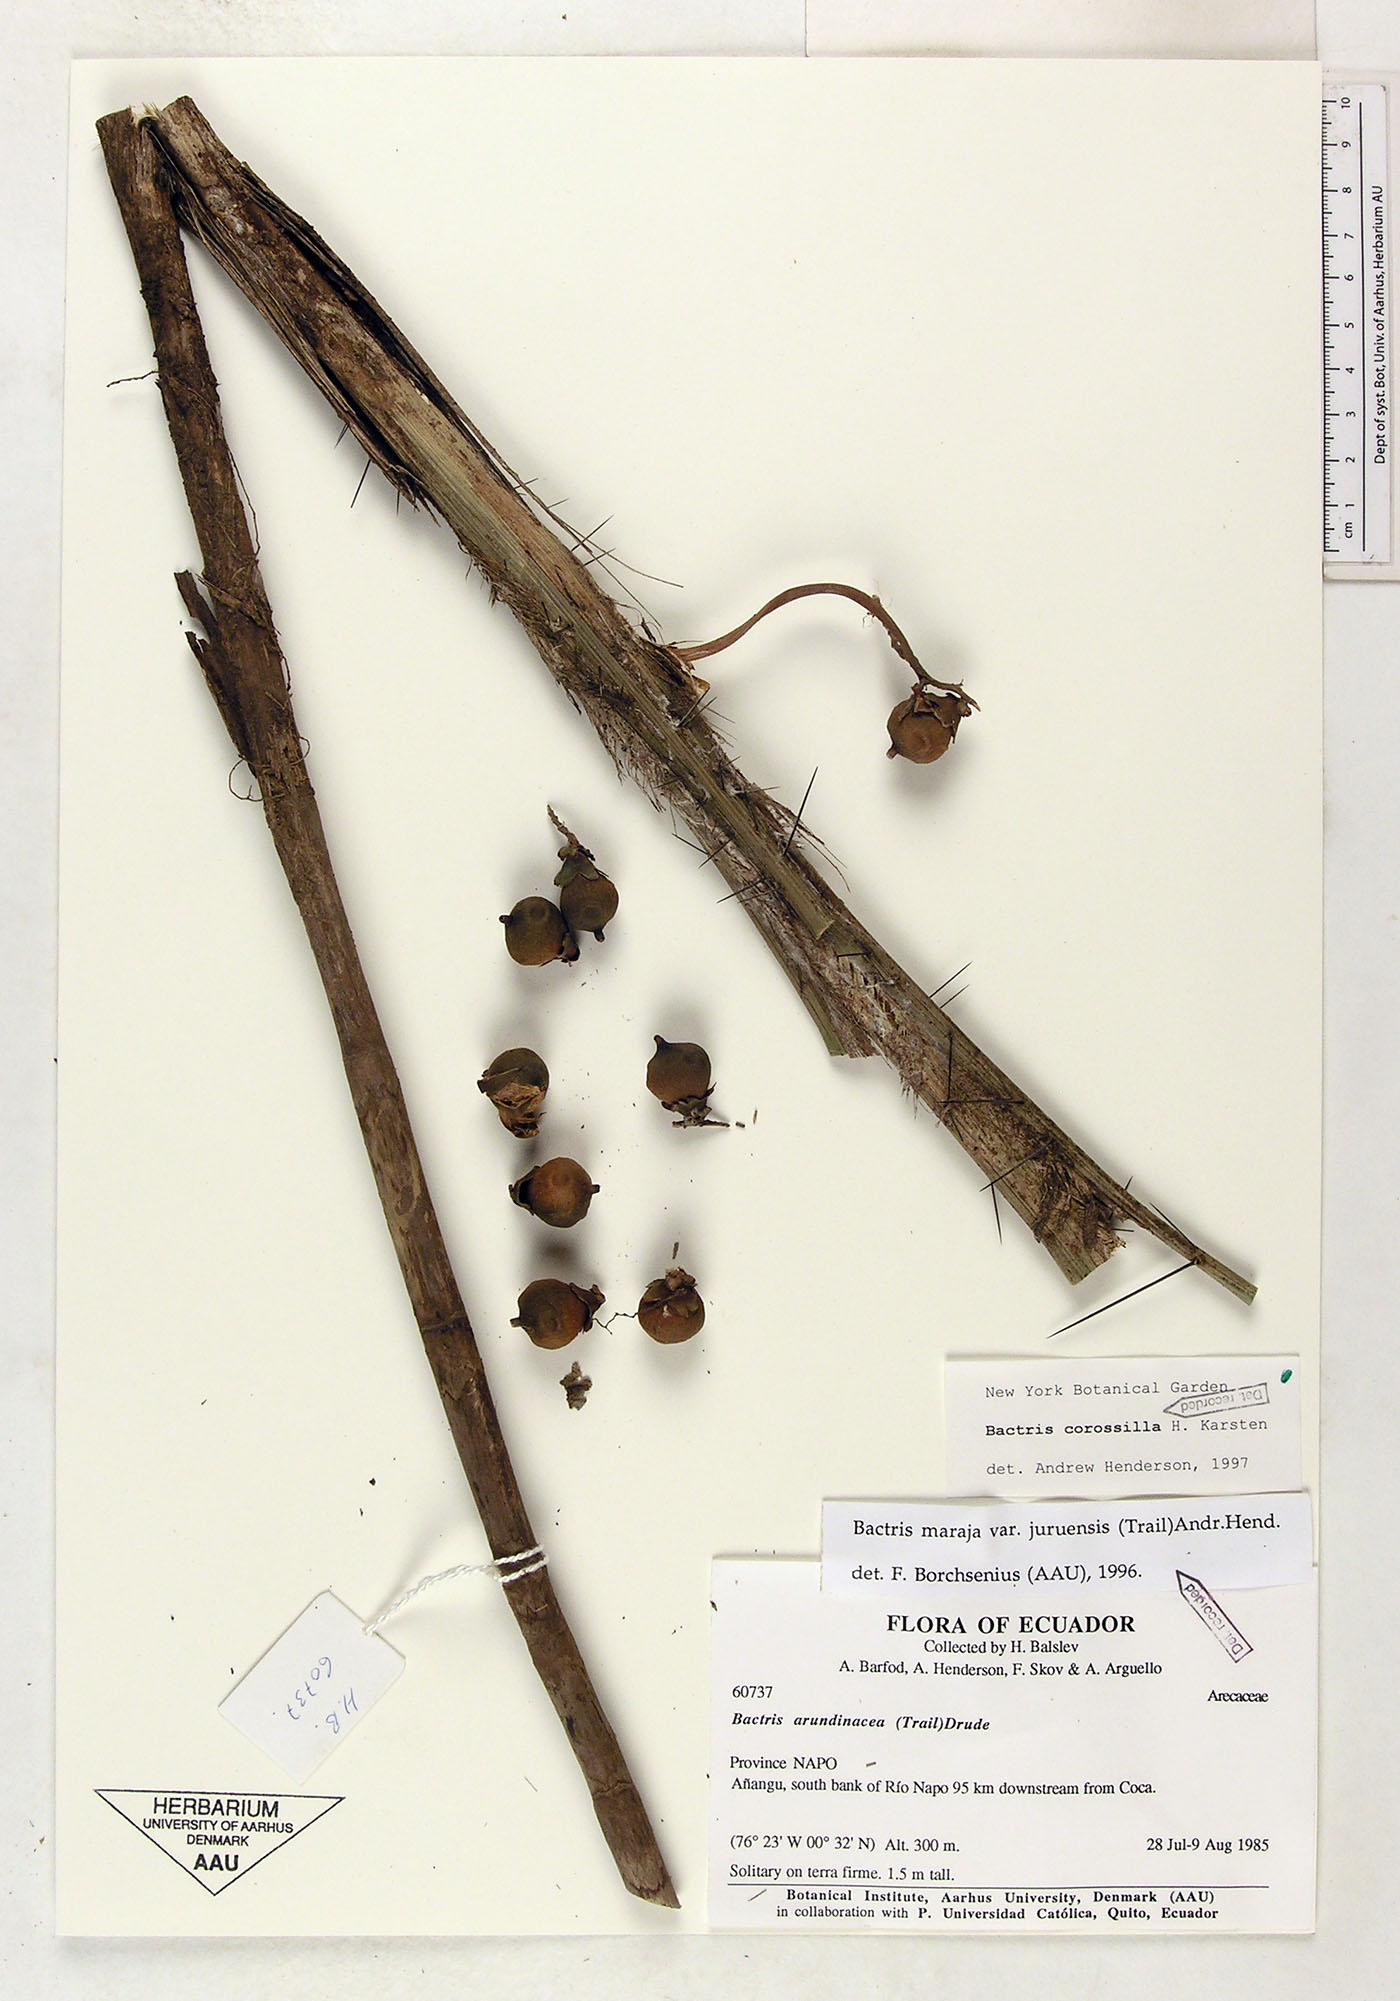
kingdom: Plantae
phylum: Tracheophyta
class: Liliopsida
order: Arecales
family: Arecaceae
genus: Bactris
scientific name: Bactris corossilla
